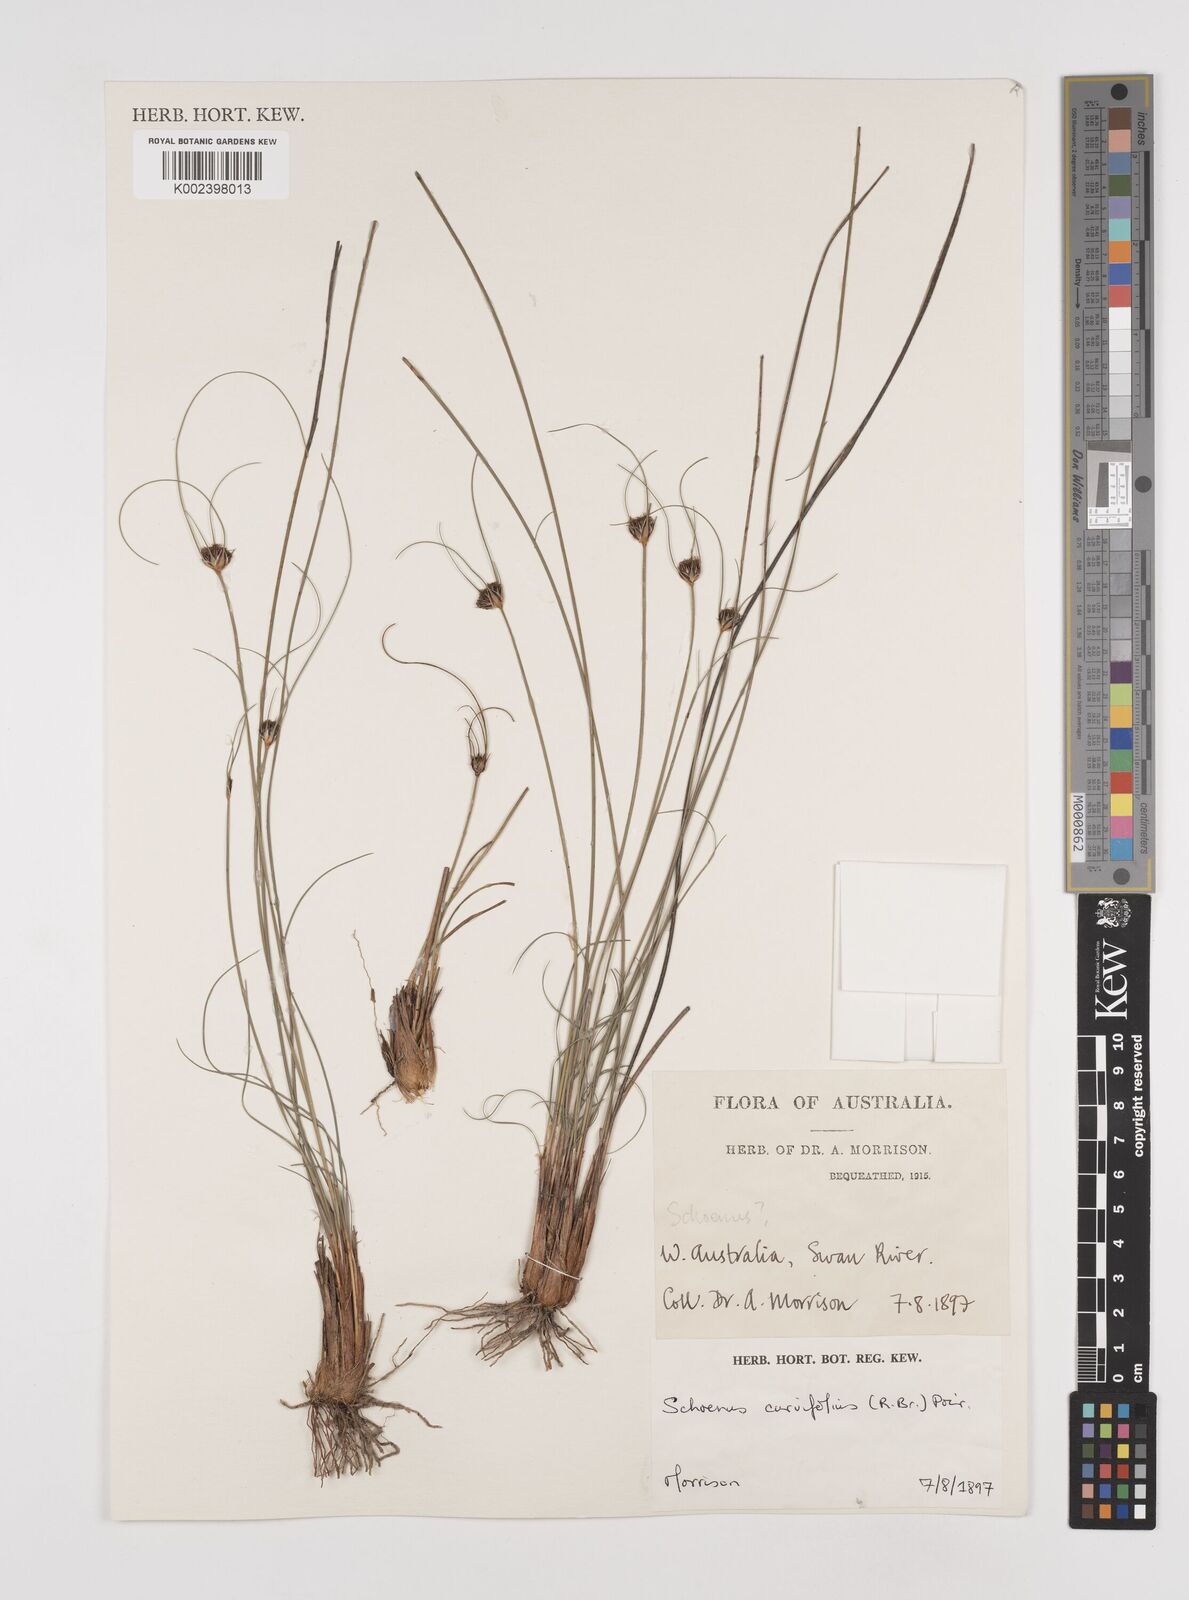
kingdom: Plantae
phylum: Tracheophyta
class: Liliopsida
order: Poales
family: Cyperaceae
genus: Schoenus
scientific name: Schoenus curvifolius
